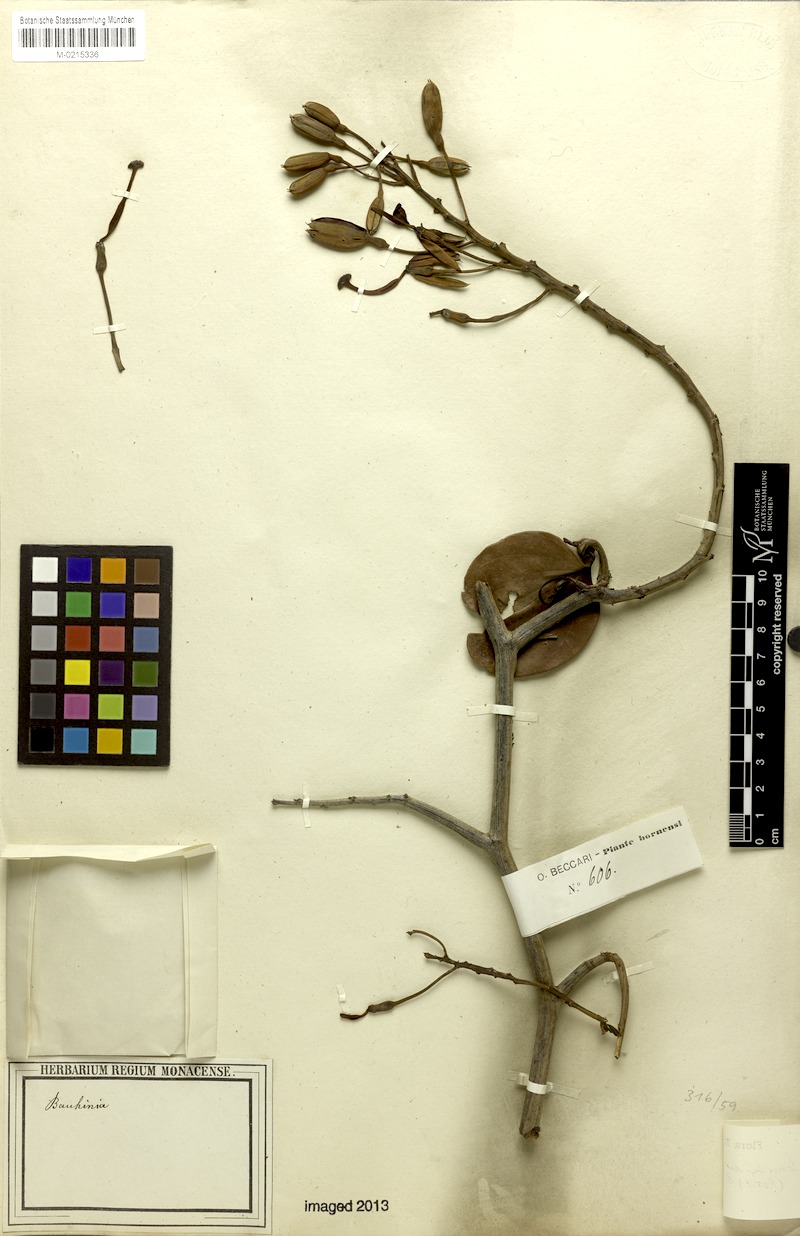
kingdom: Plantae
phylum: Tracheophyta
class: Magnoliopsida
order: Fabales
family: Fabaceae
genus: Phanera
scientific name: Phanera semibifida
